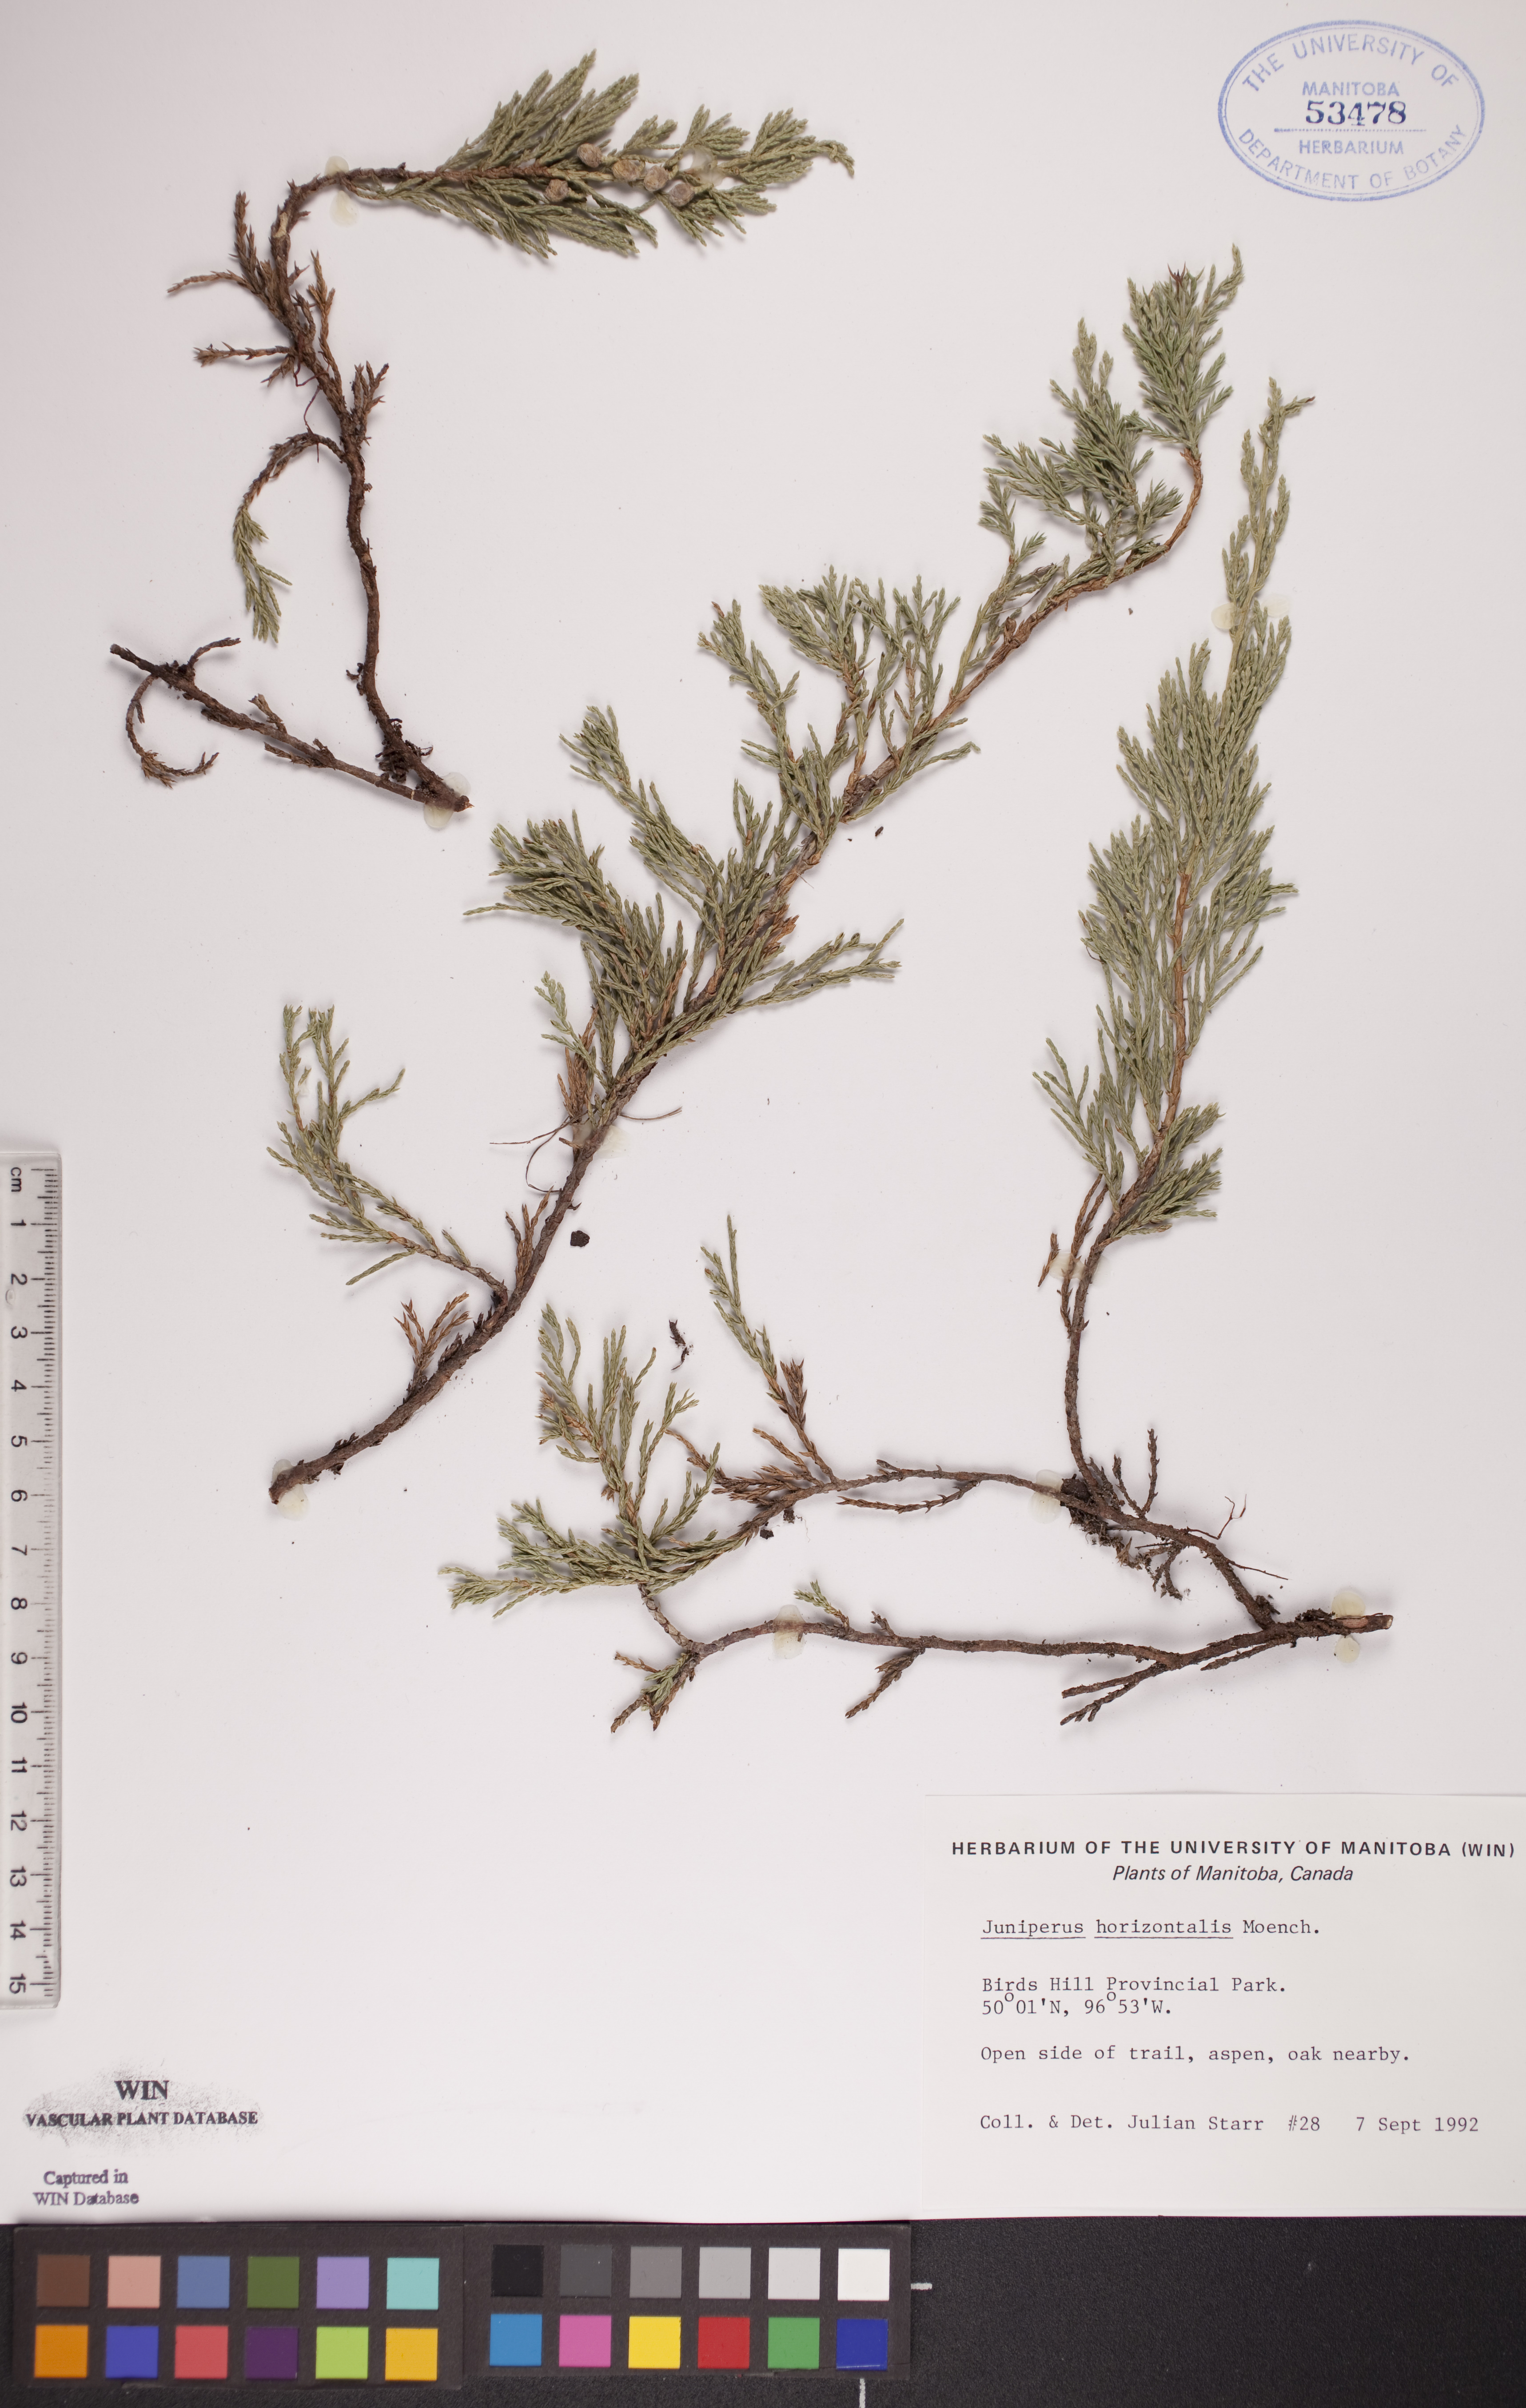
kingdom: Plantae
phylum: Tracheophyta
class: Pinopsida
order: Pinales
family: Cupressaceae
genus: Juniperus
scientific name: Juniperus horizontalis
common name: Creeping juniper
